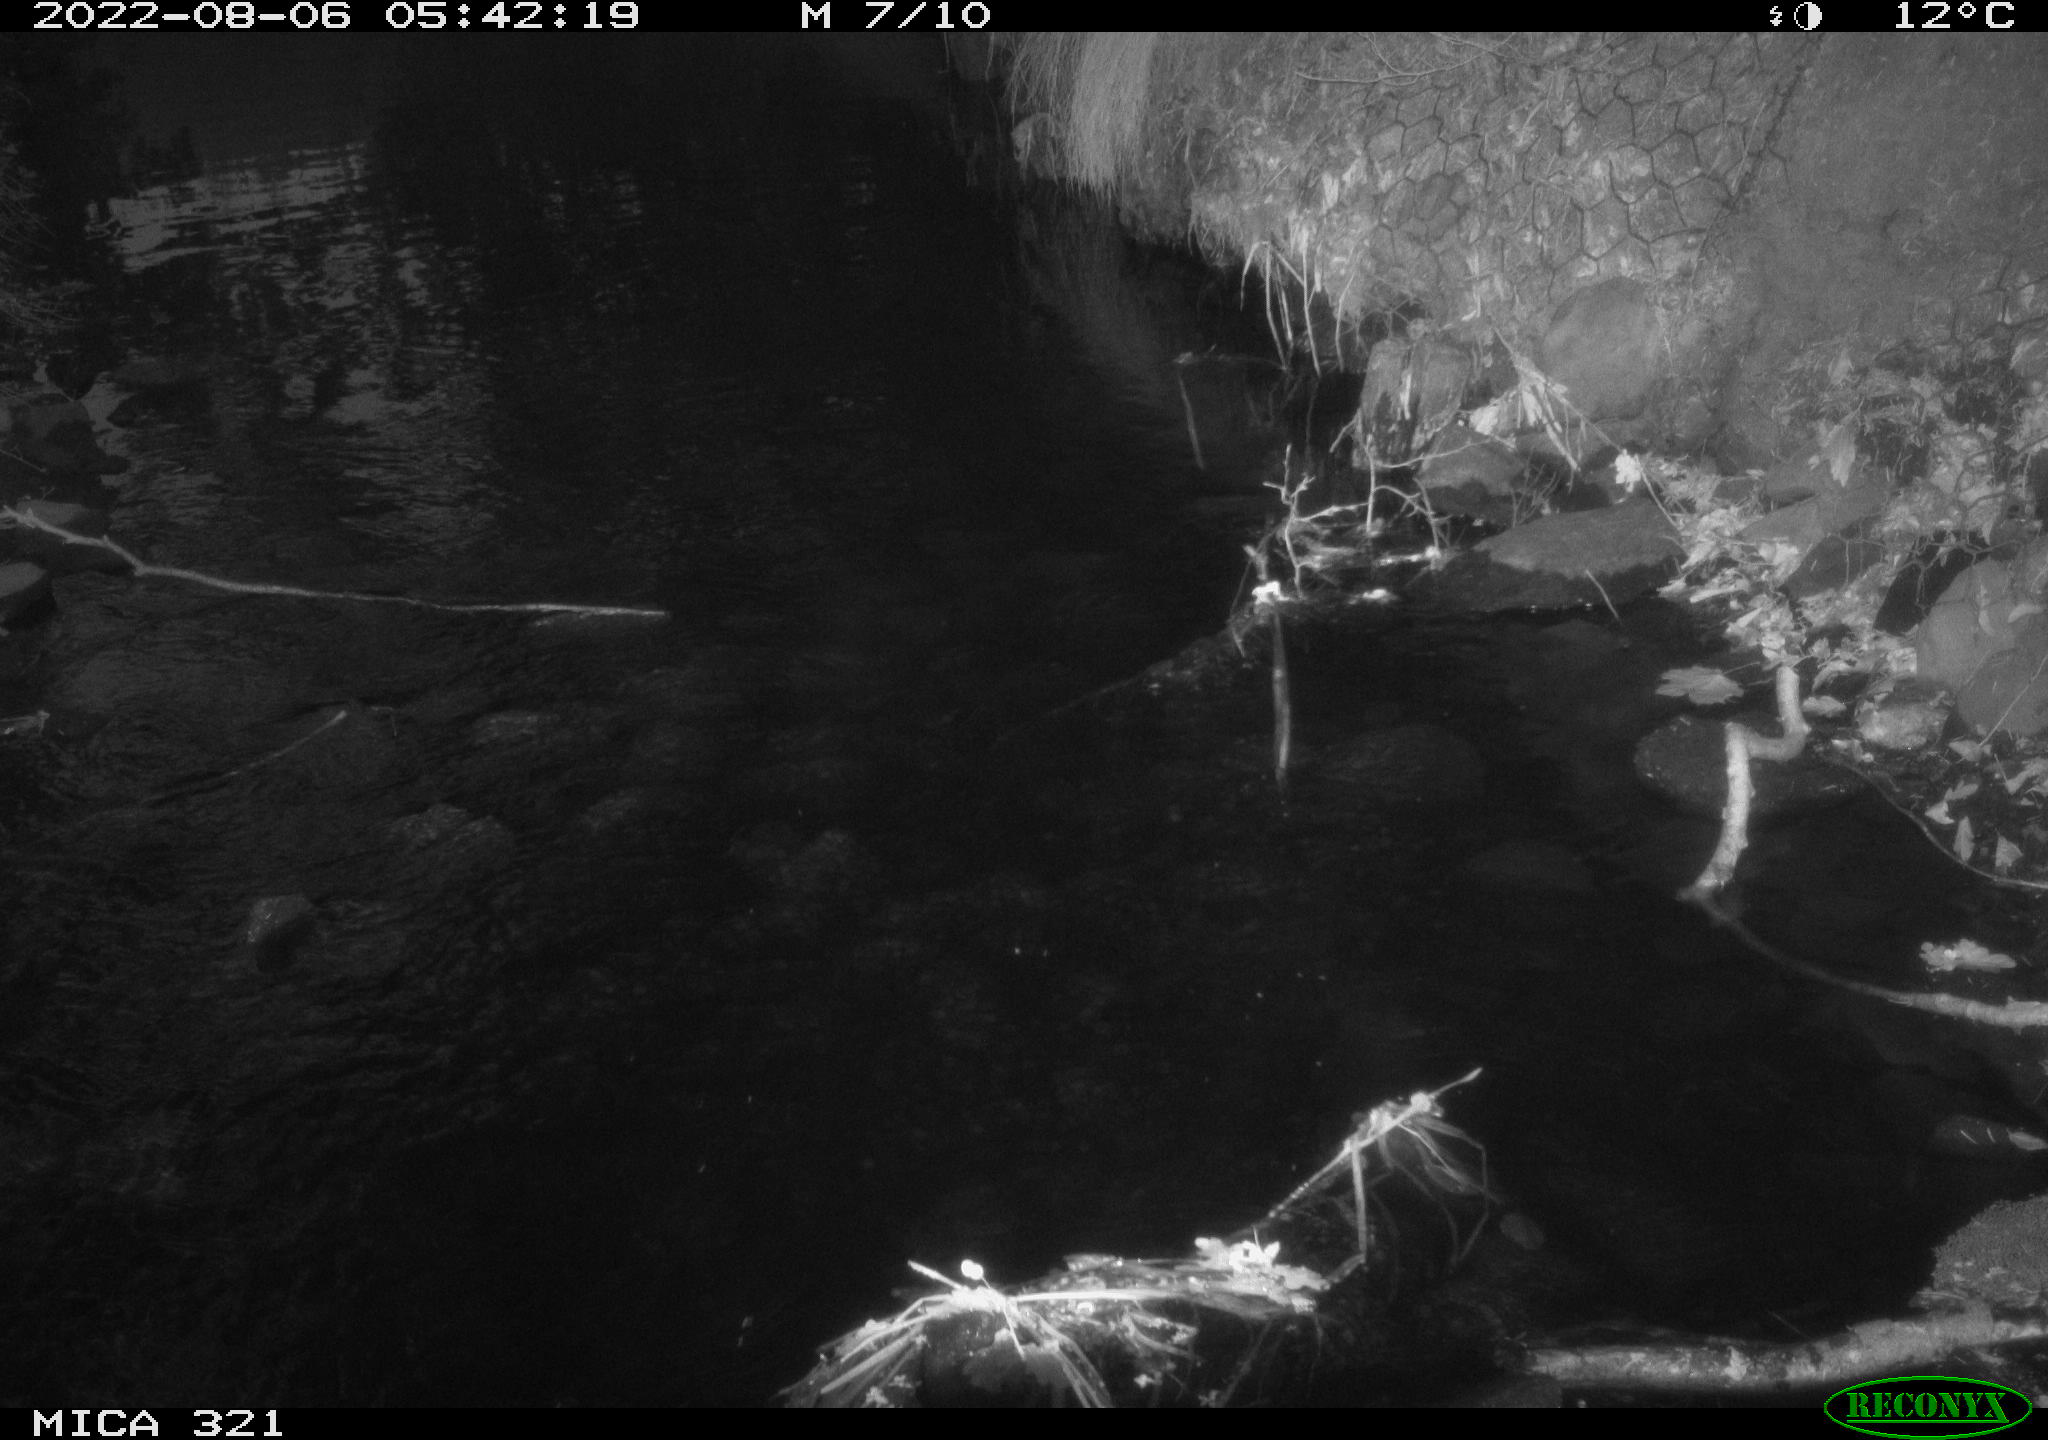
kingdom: Animalia
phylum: Chordata
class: Aves
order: Anseriformes
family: Anatidae
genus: Anas
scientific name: Anas platyrhynchos
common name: Mallard
